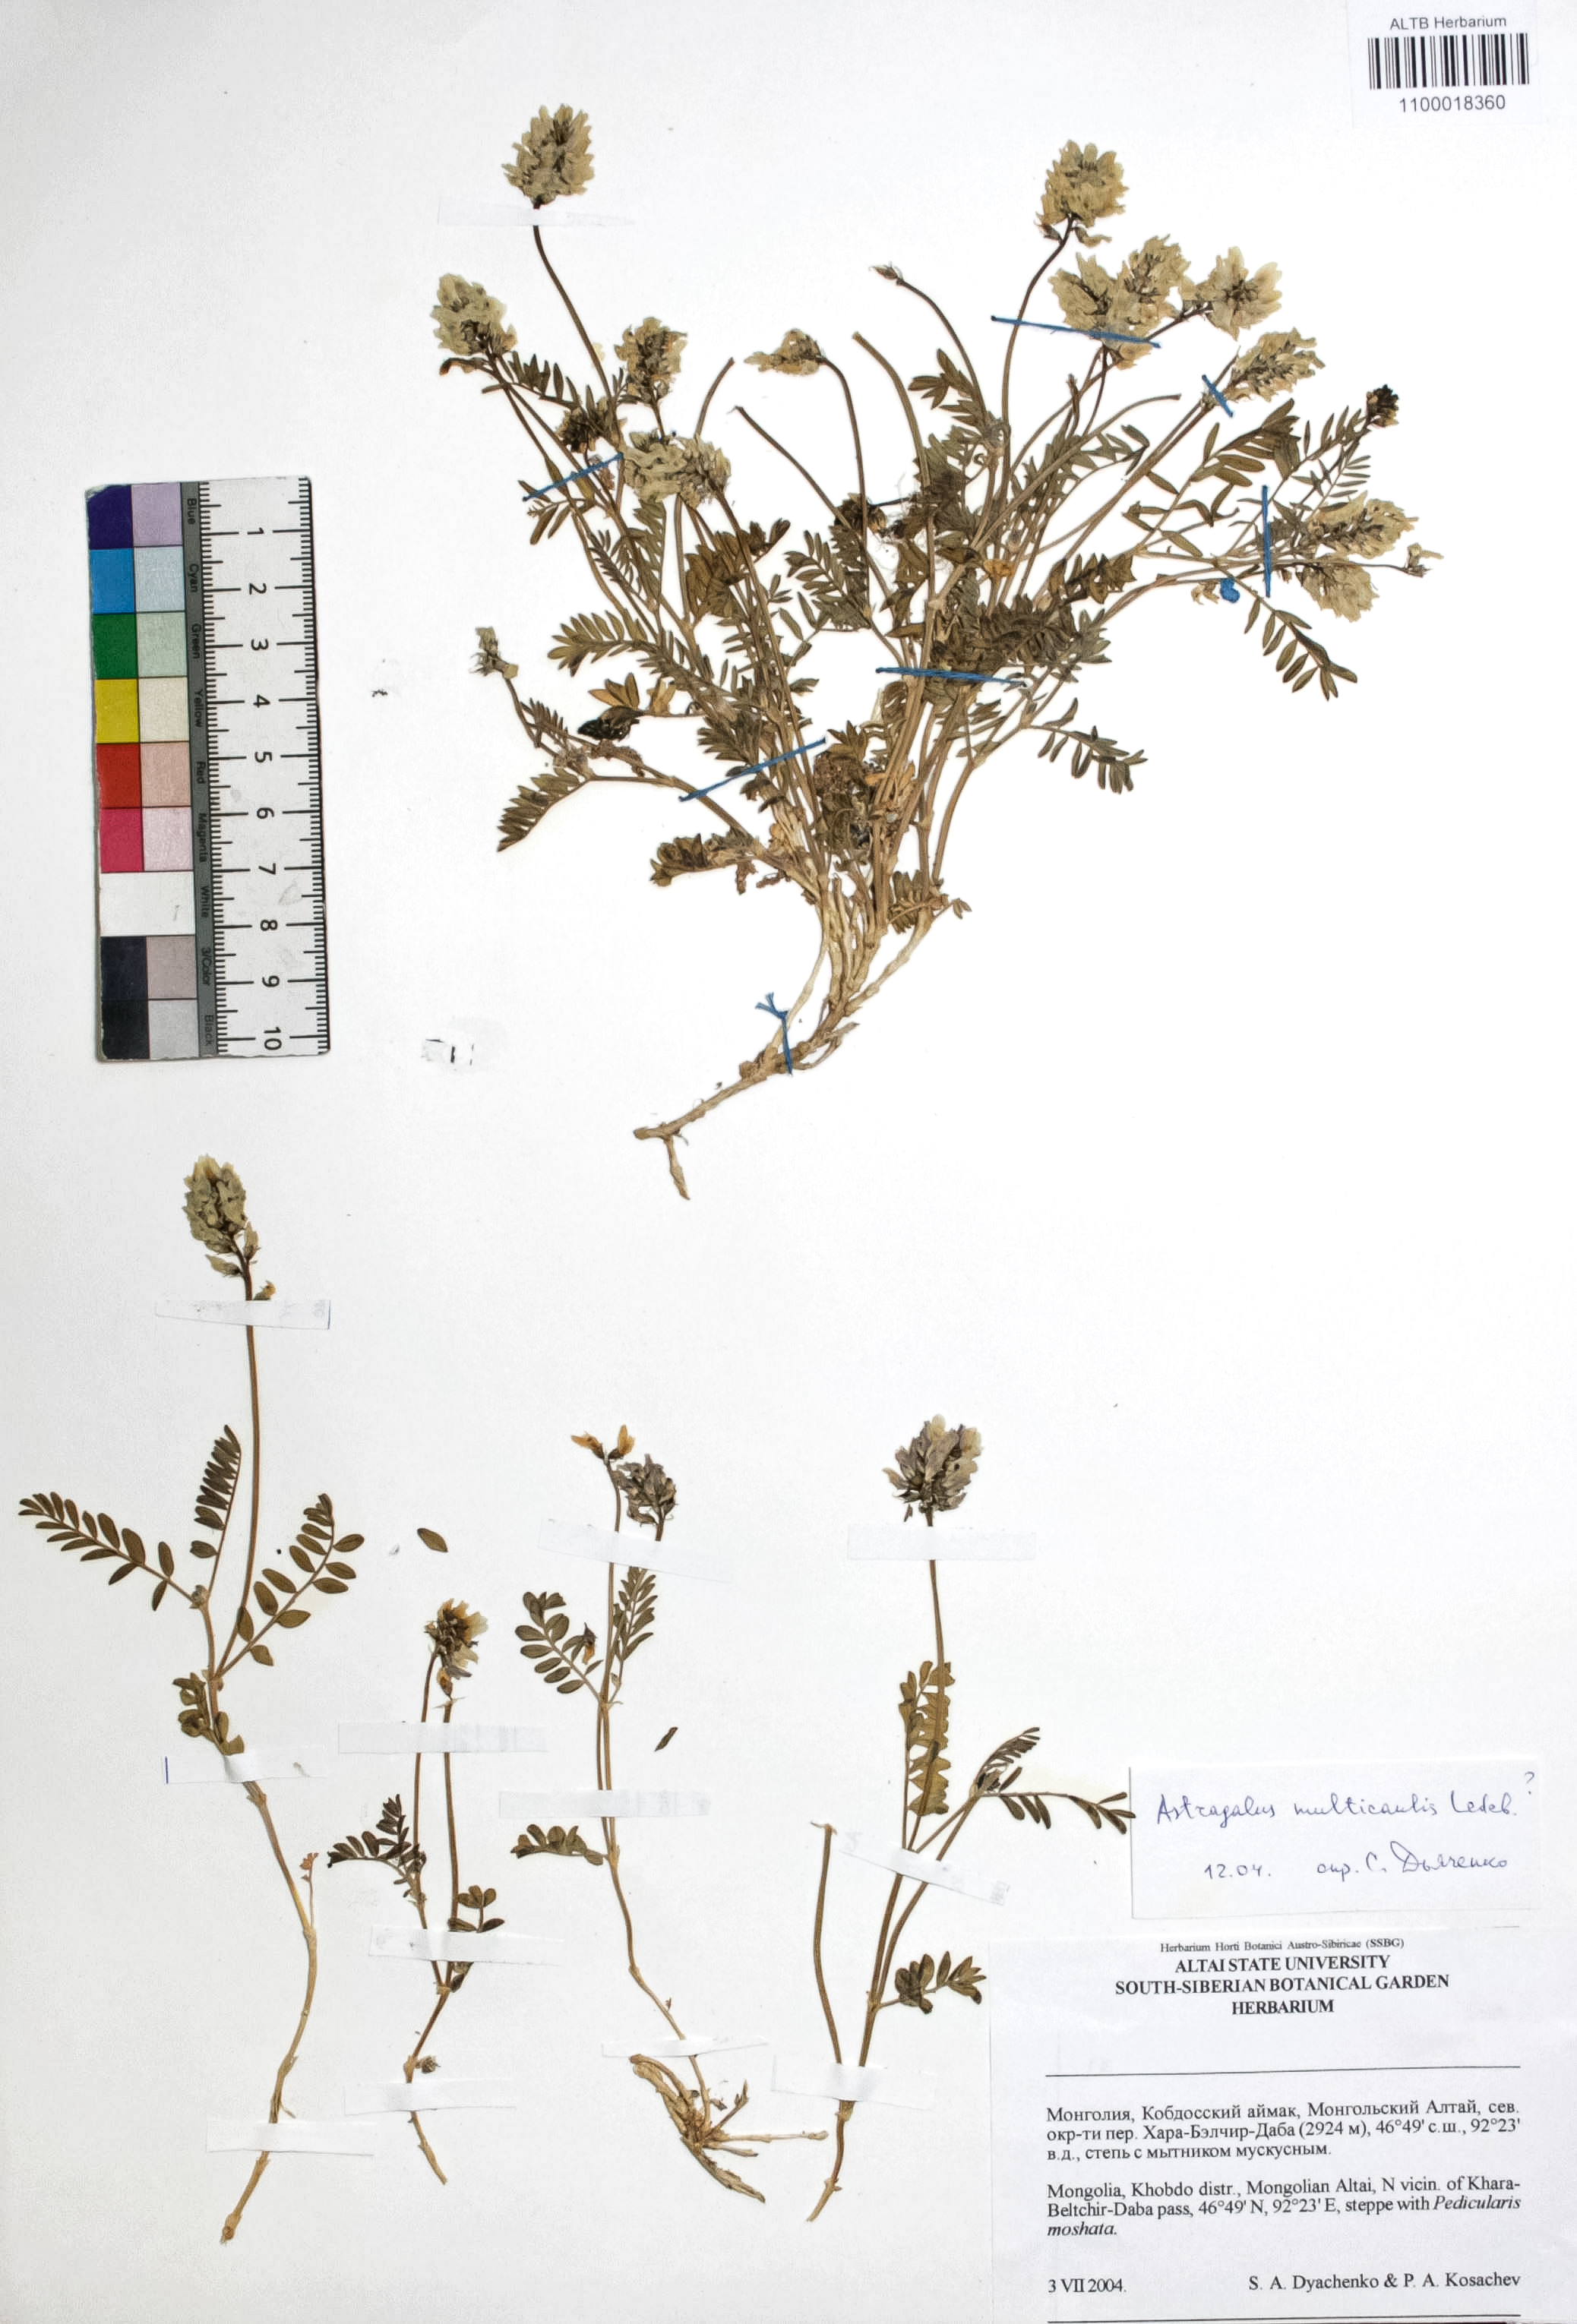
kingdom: Plantae
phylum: Tracheophyta
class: Magnoliopsida
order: Fabales
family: Fabaceae
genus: Astragalus
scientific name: Astragalus leptostachys
